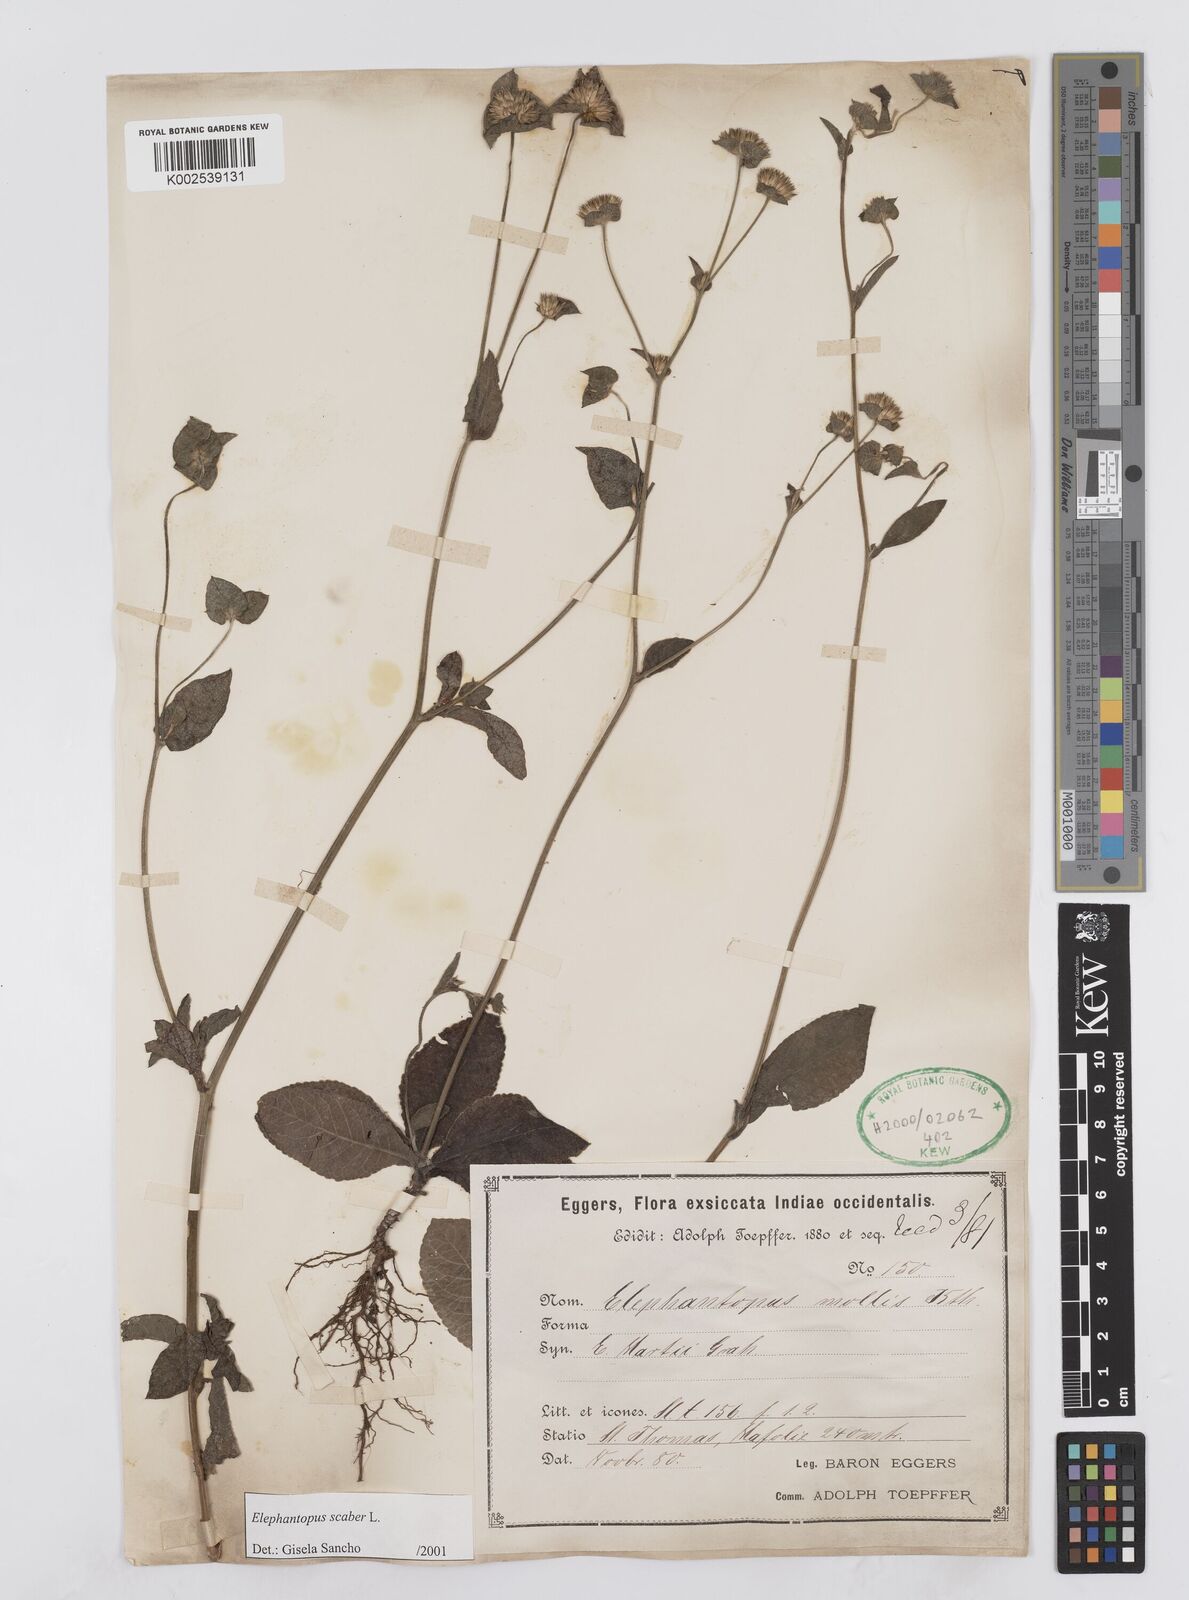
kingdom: Plantae
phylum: Tracheophyta
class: Magnoliopsida
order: Asterales
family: Asteraceae
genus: Pseudelephantopus
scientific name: Pseudelephantopus spicatus
